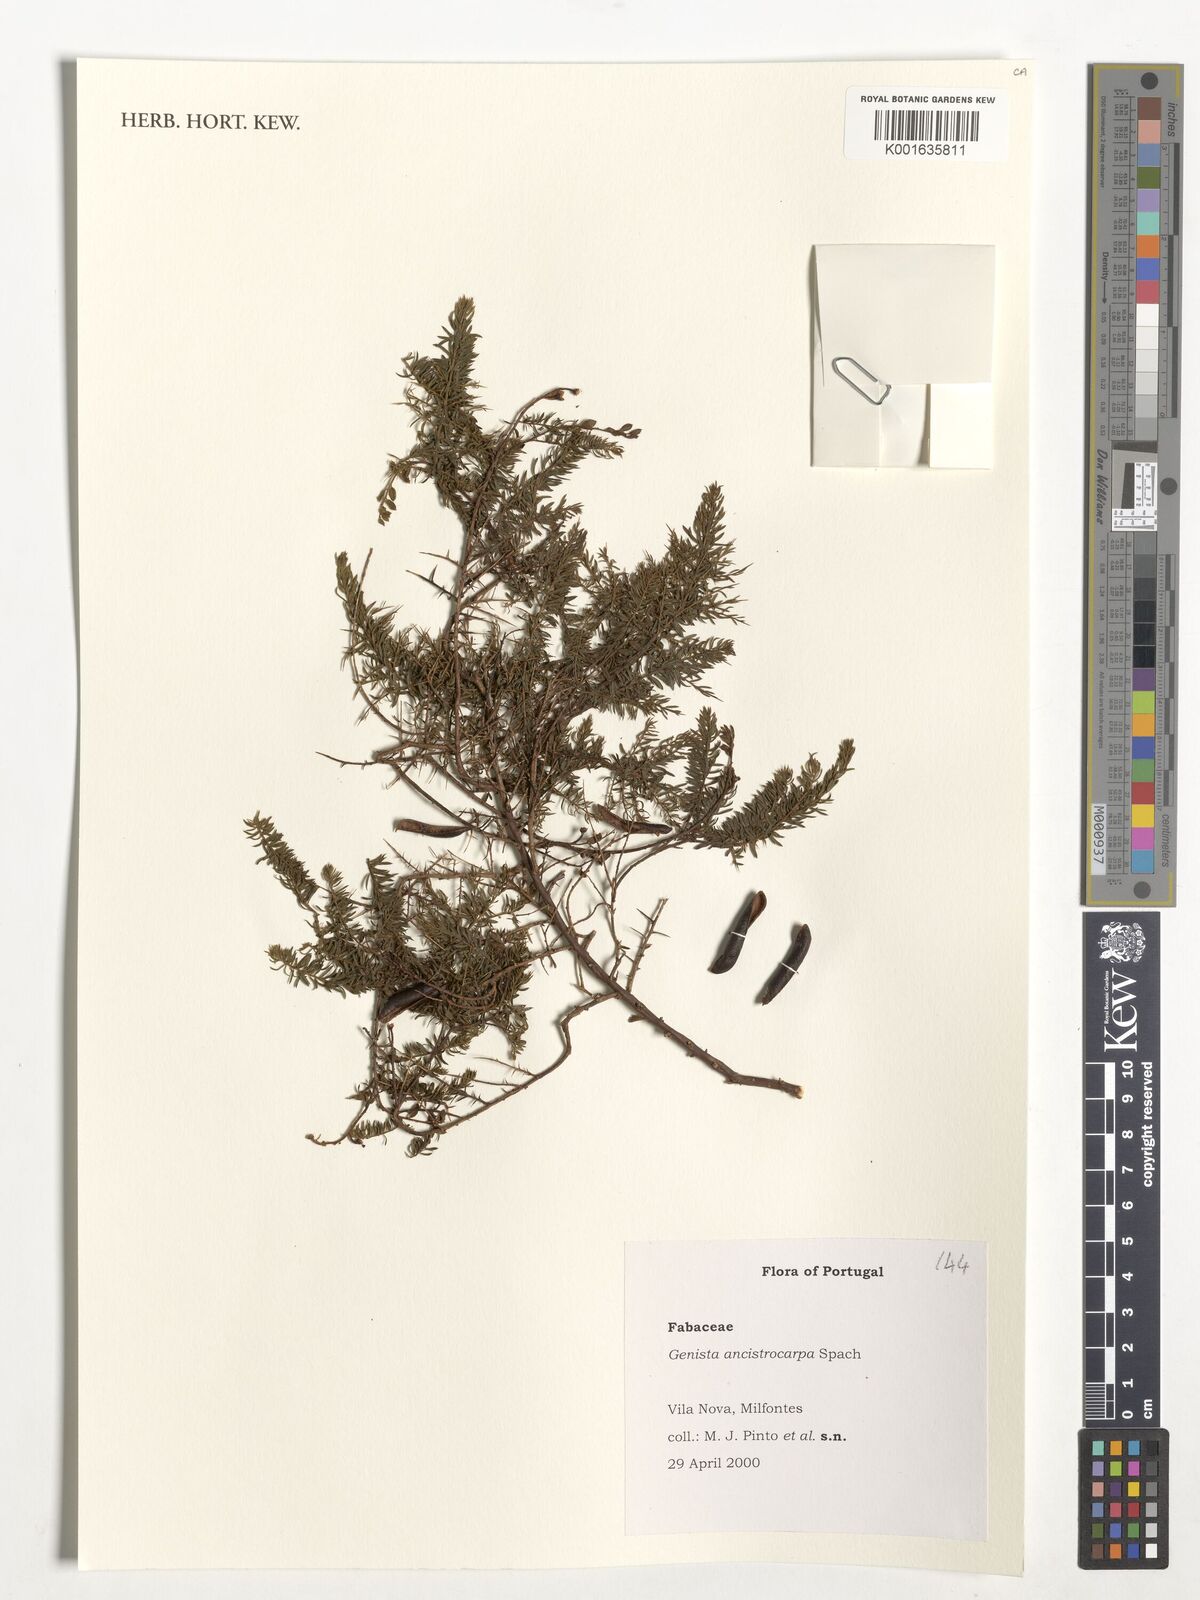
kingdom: Plantae
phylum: Tracheophyta
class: Magnoliopsida
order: Fabales
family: Fabaceae
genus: Genista
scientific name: Genista ancistrocarpa
